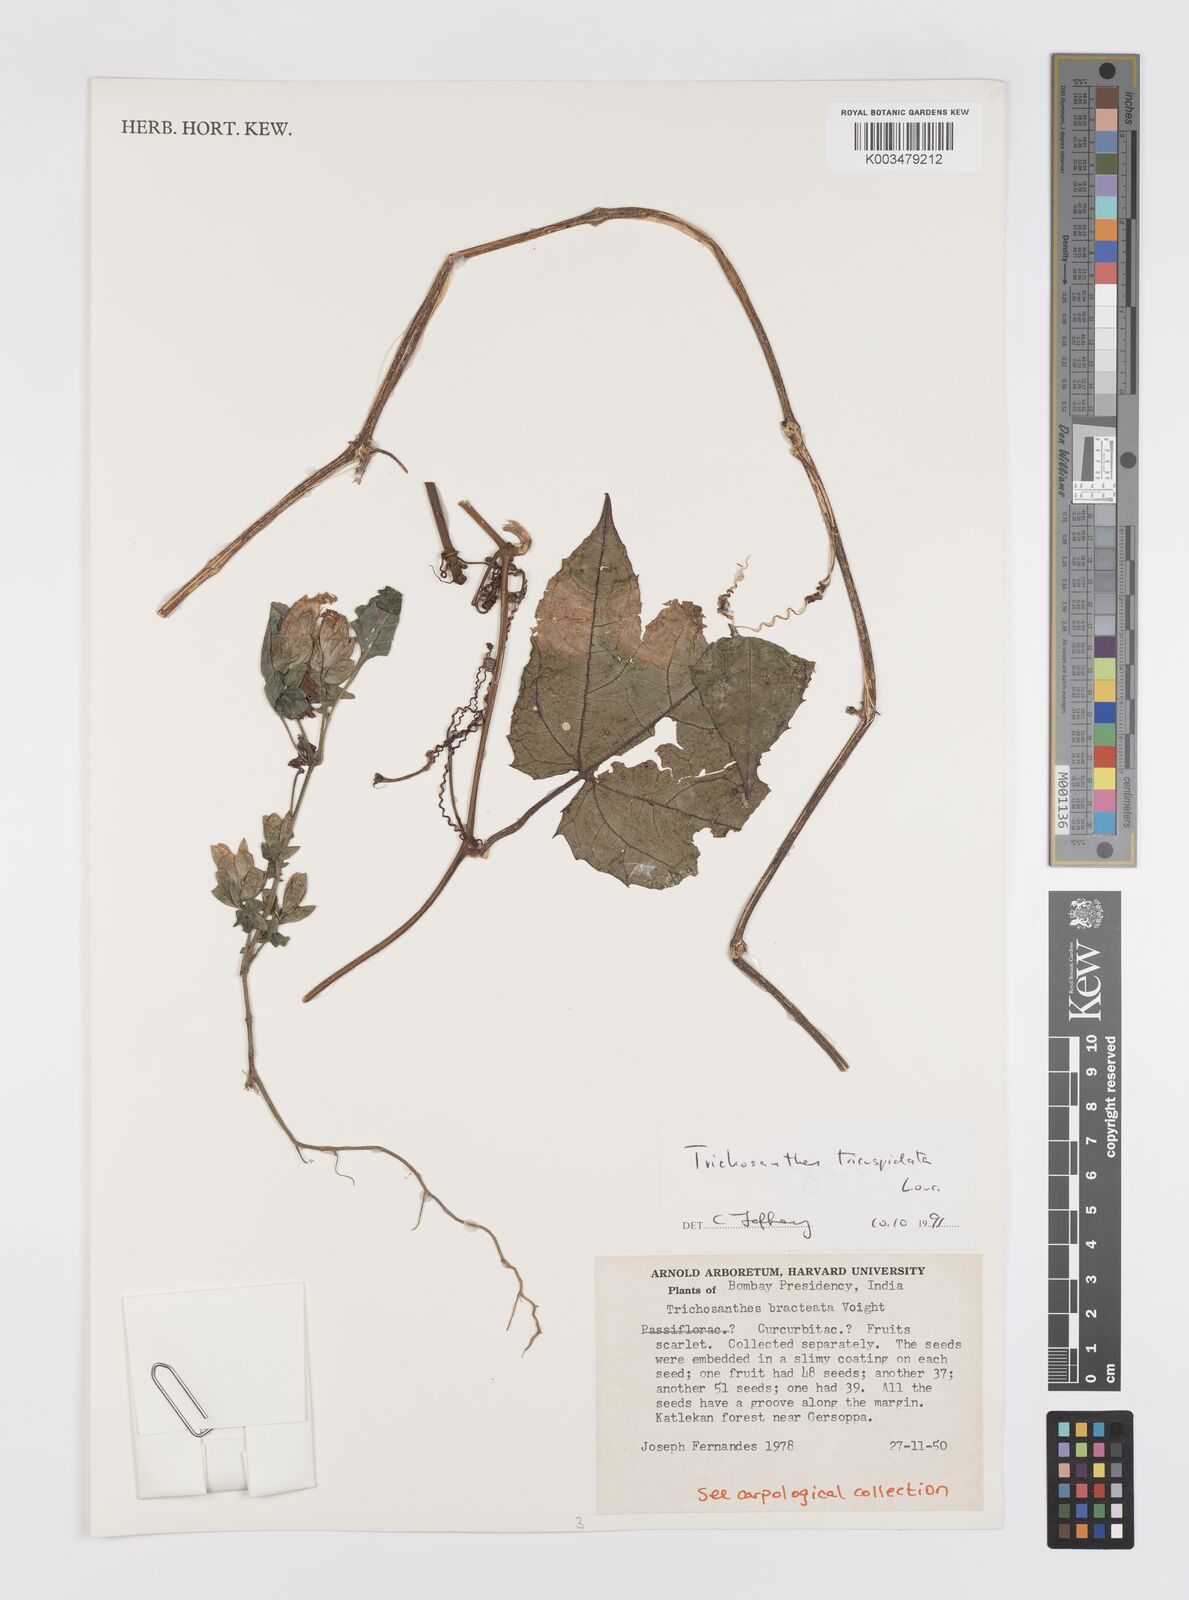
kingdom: Plantae
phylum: Tracheophyta
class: Magnoliopsida
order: Cucurbitales
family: Cucurbitaceae
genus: Trichosanthes
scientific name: Trichosanthes tricuspidata
